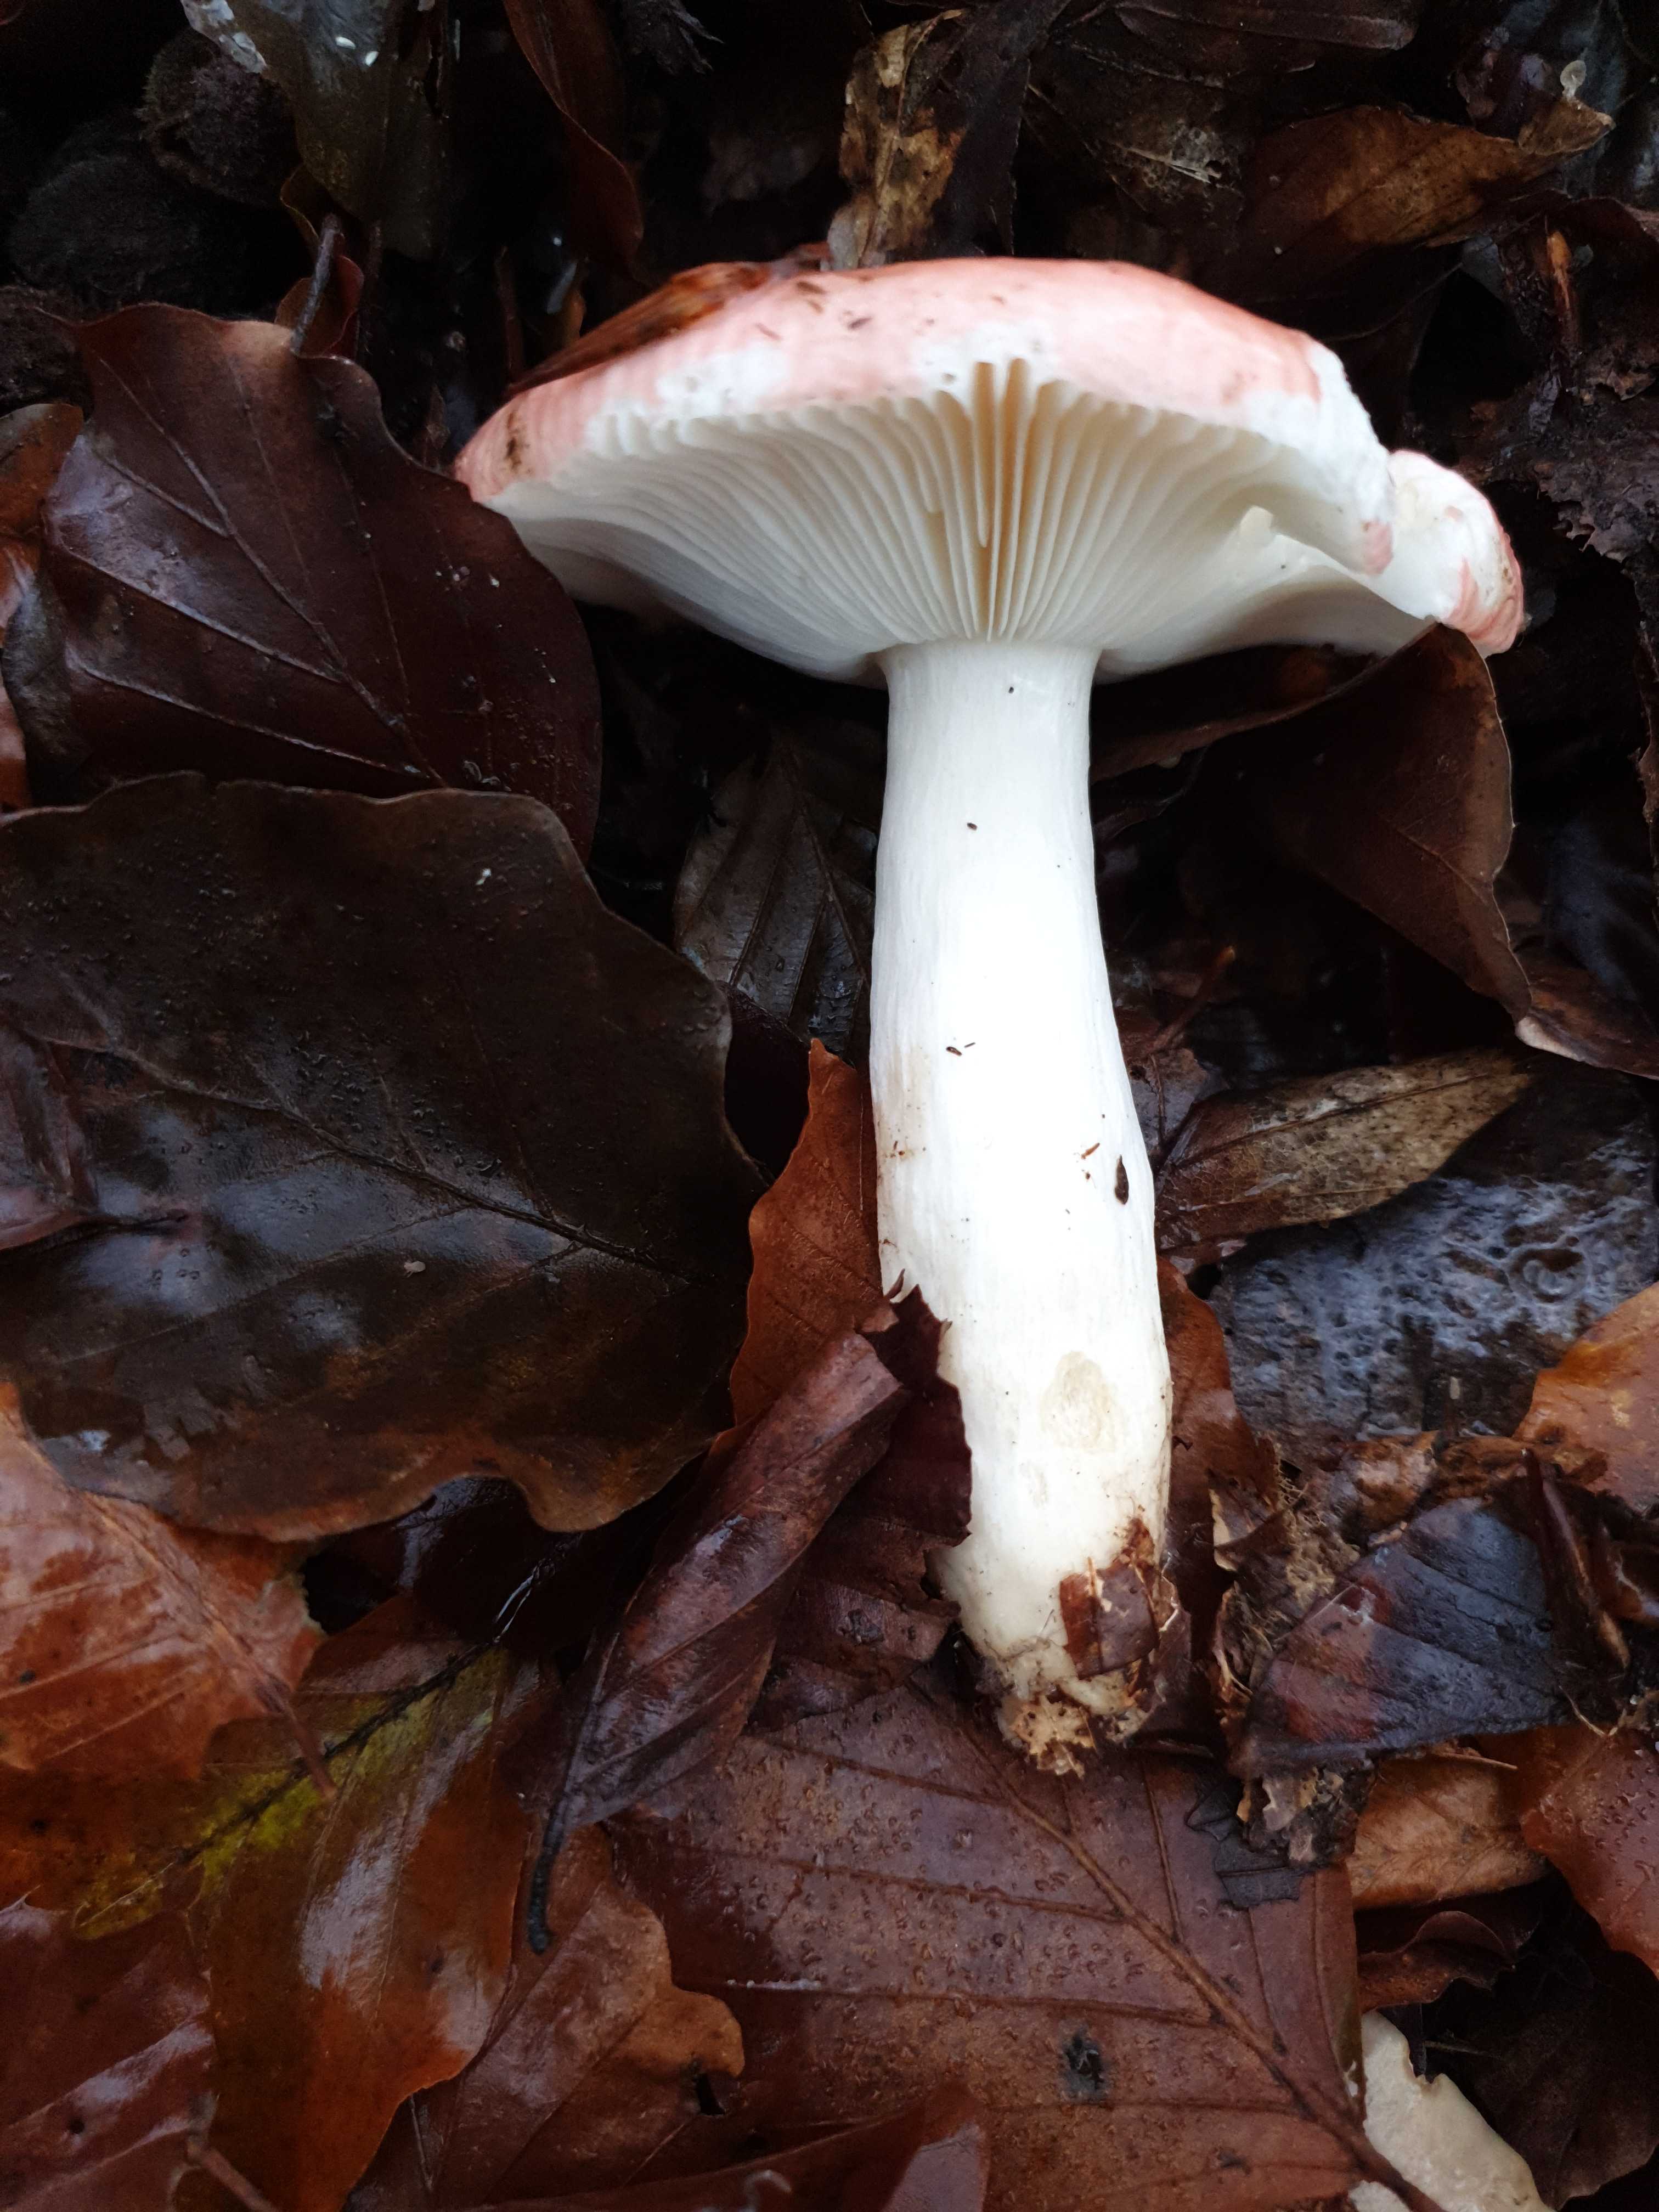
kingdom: Fungi
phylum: Basidiomycota
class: Agaricomycetes
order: Russulales
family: Russulaceae
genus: Russula
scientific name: Russula
